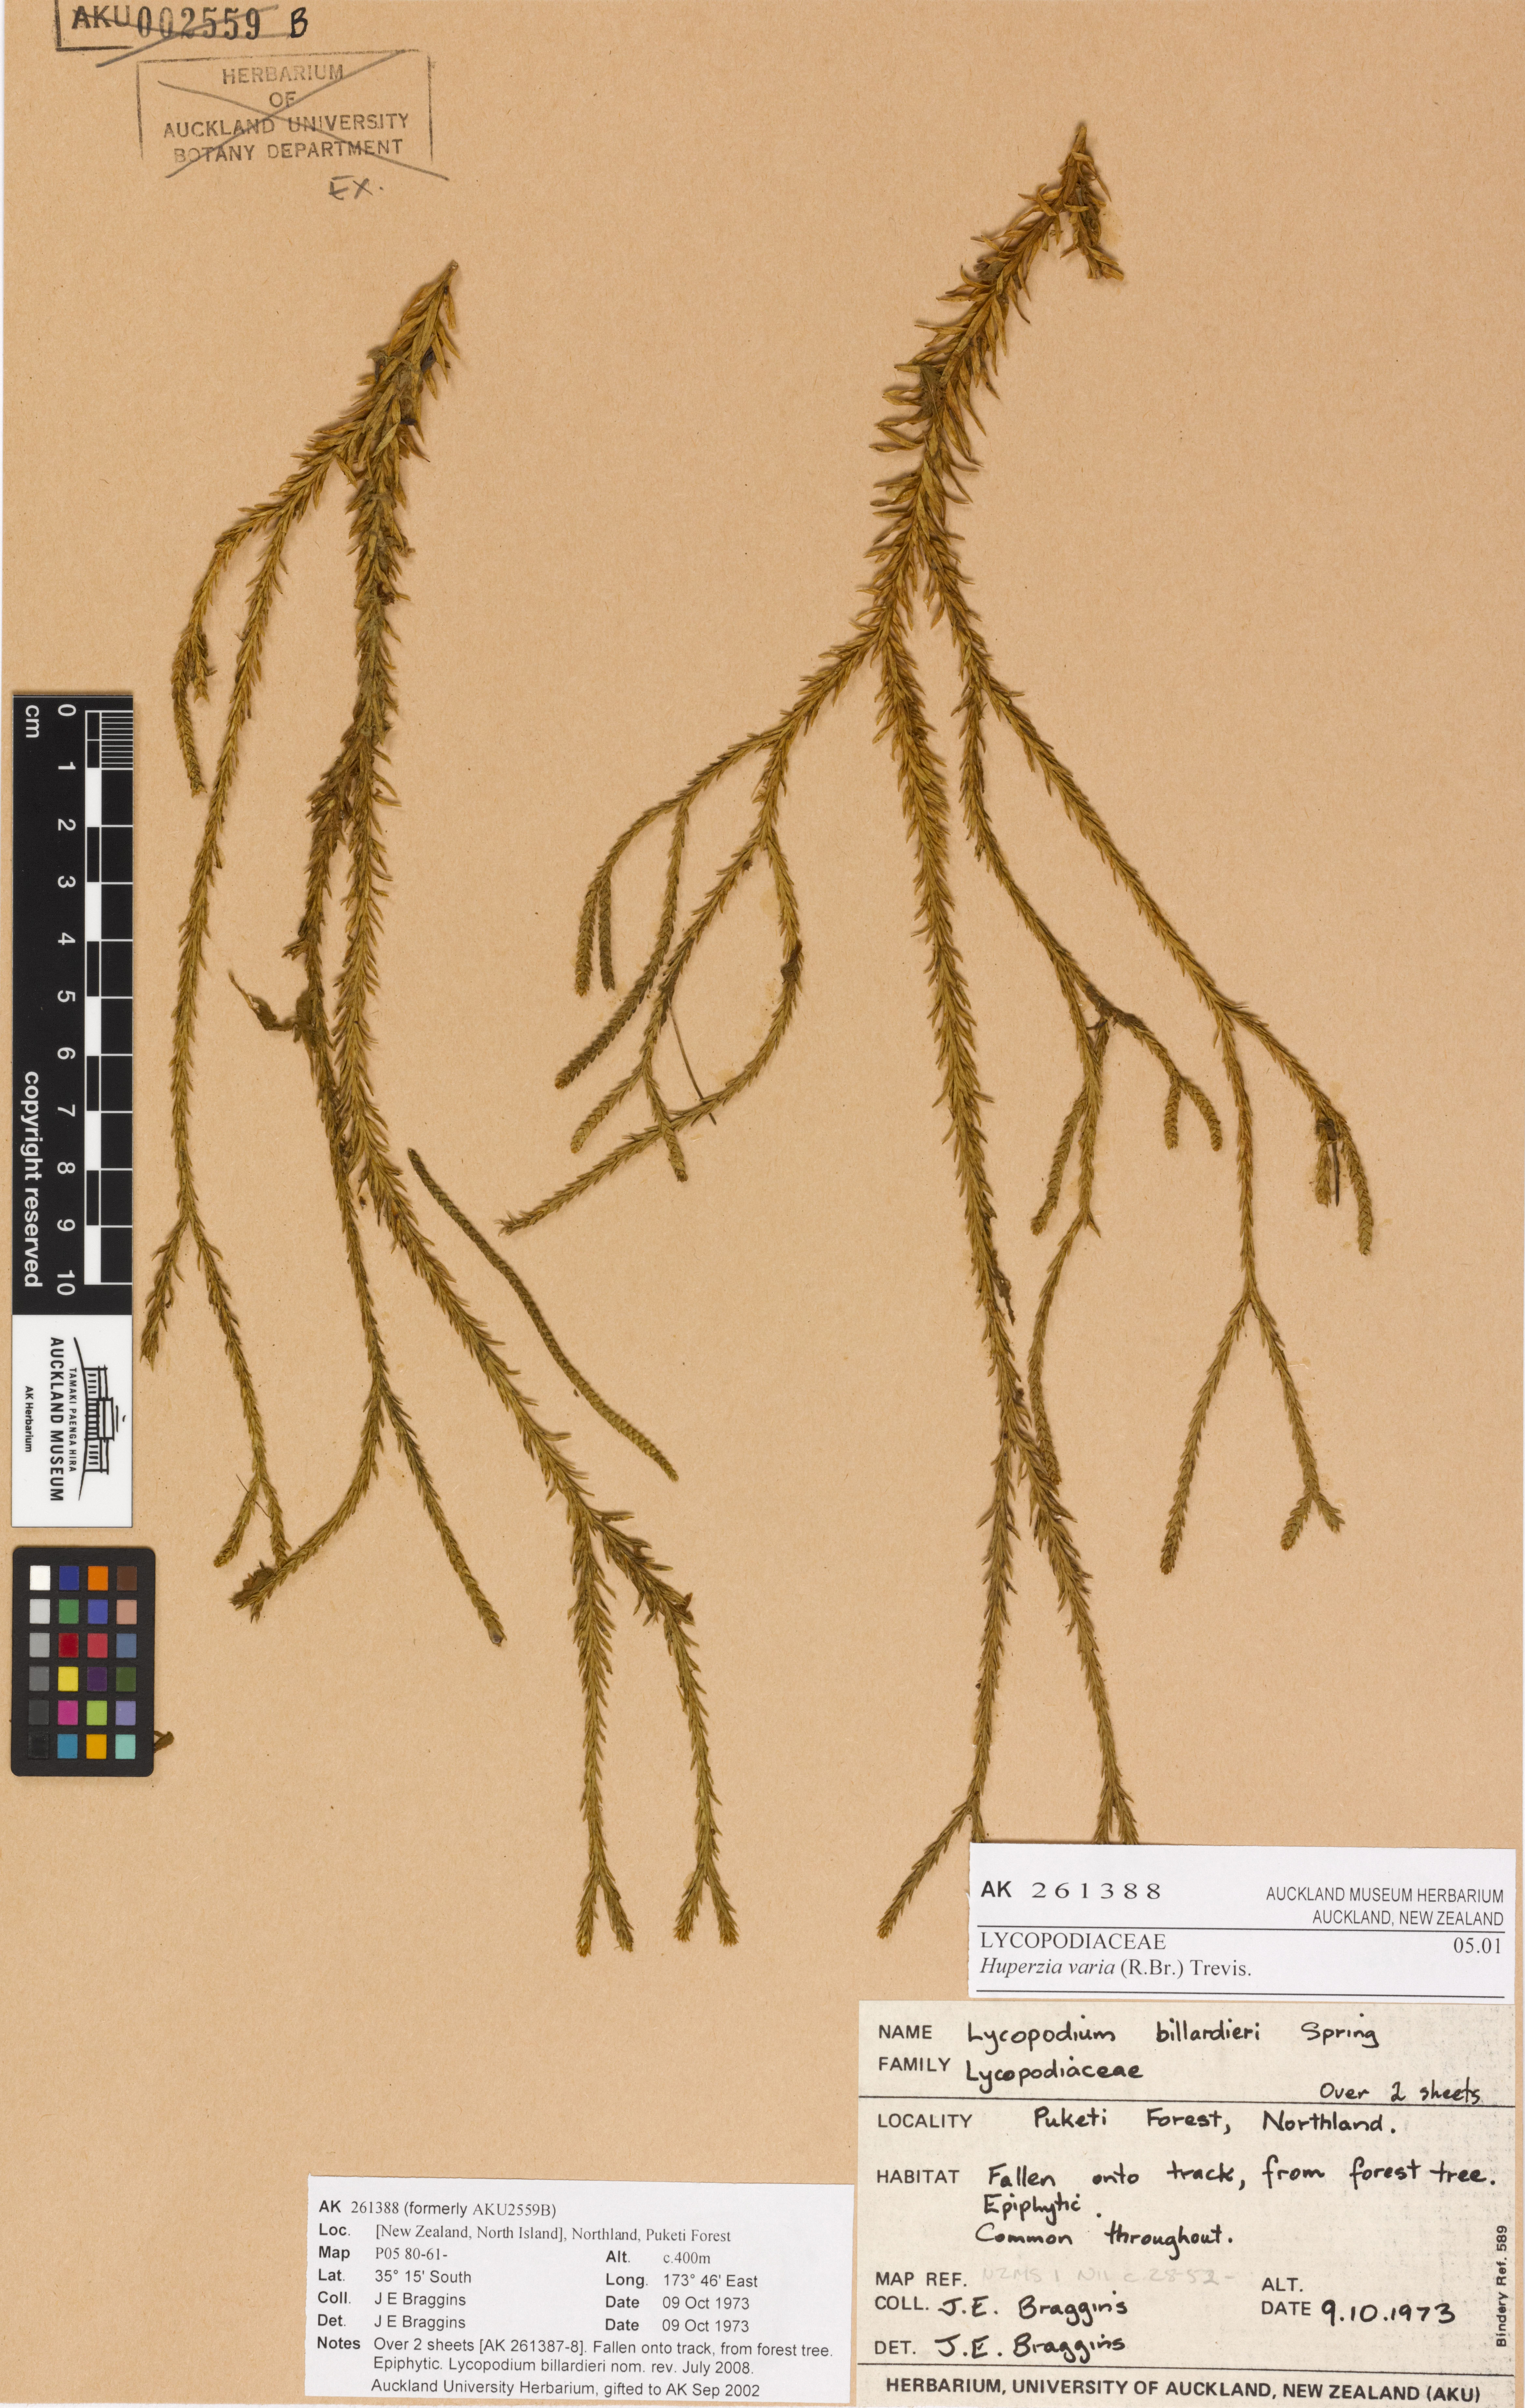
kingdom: Plantae
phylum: Tracheophyta
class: Lycopodiopsida
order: Lycopodiales
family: Lycopodiaceae
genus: Phlegmariurus
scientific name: Phlegmariurus billardierei
